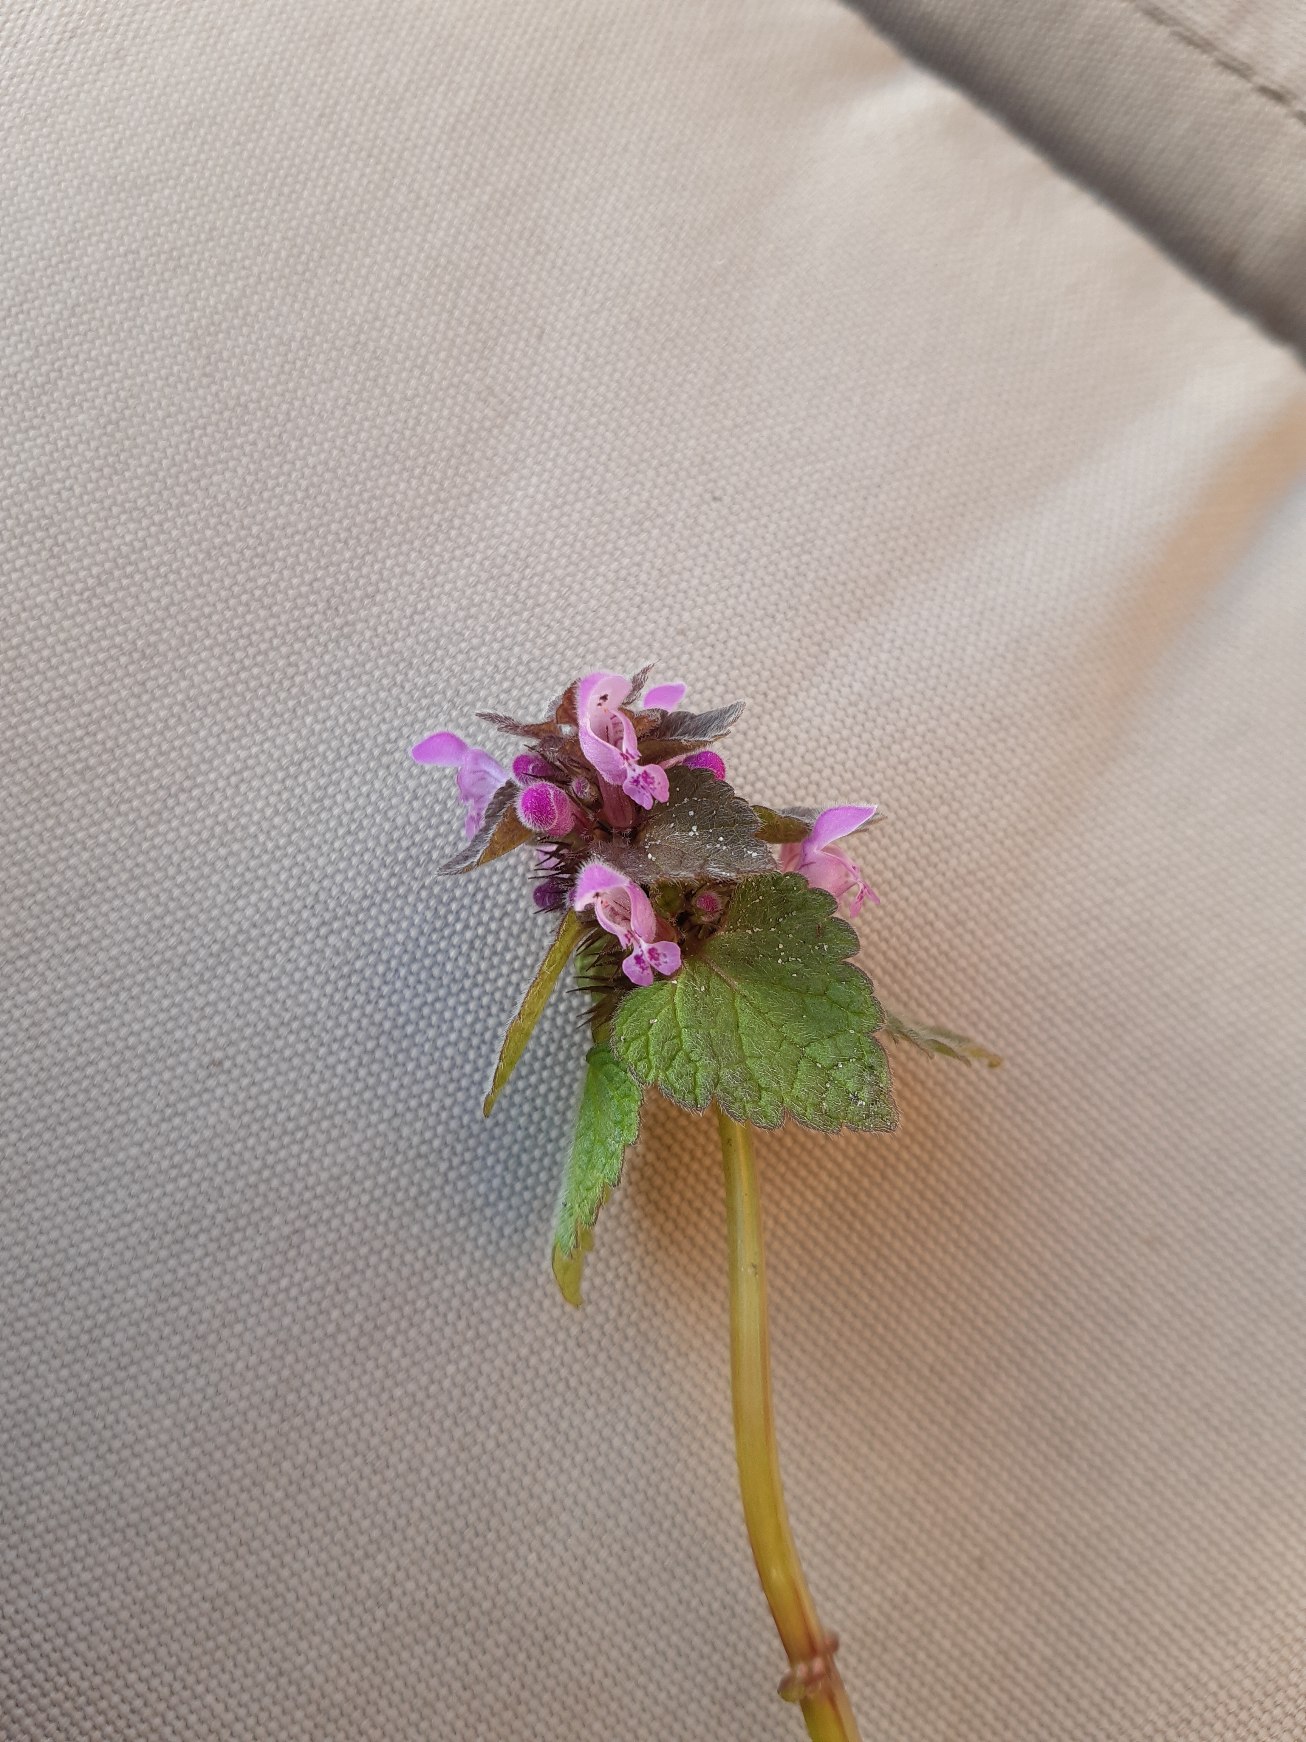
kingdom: Plantae
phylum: Tracheophyta
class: Magnoliopsida
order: Lamiales
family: Lamiaceae
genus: Lamium
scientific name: Lamium purpureum
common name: Rød tvetand
